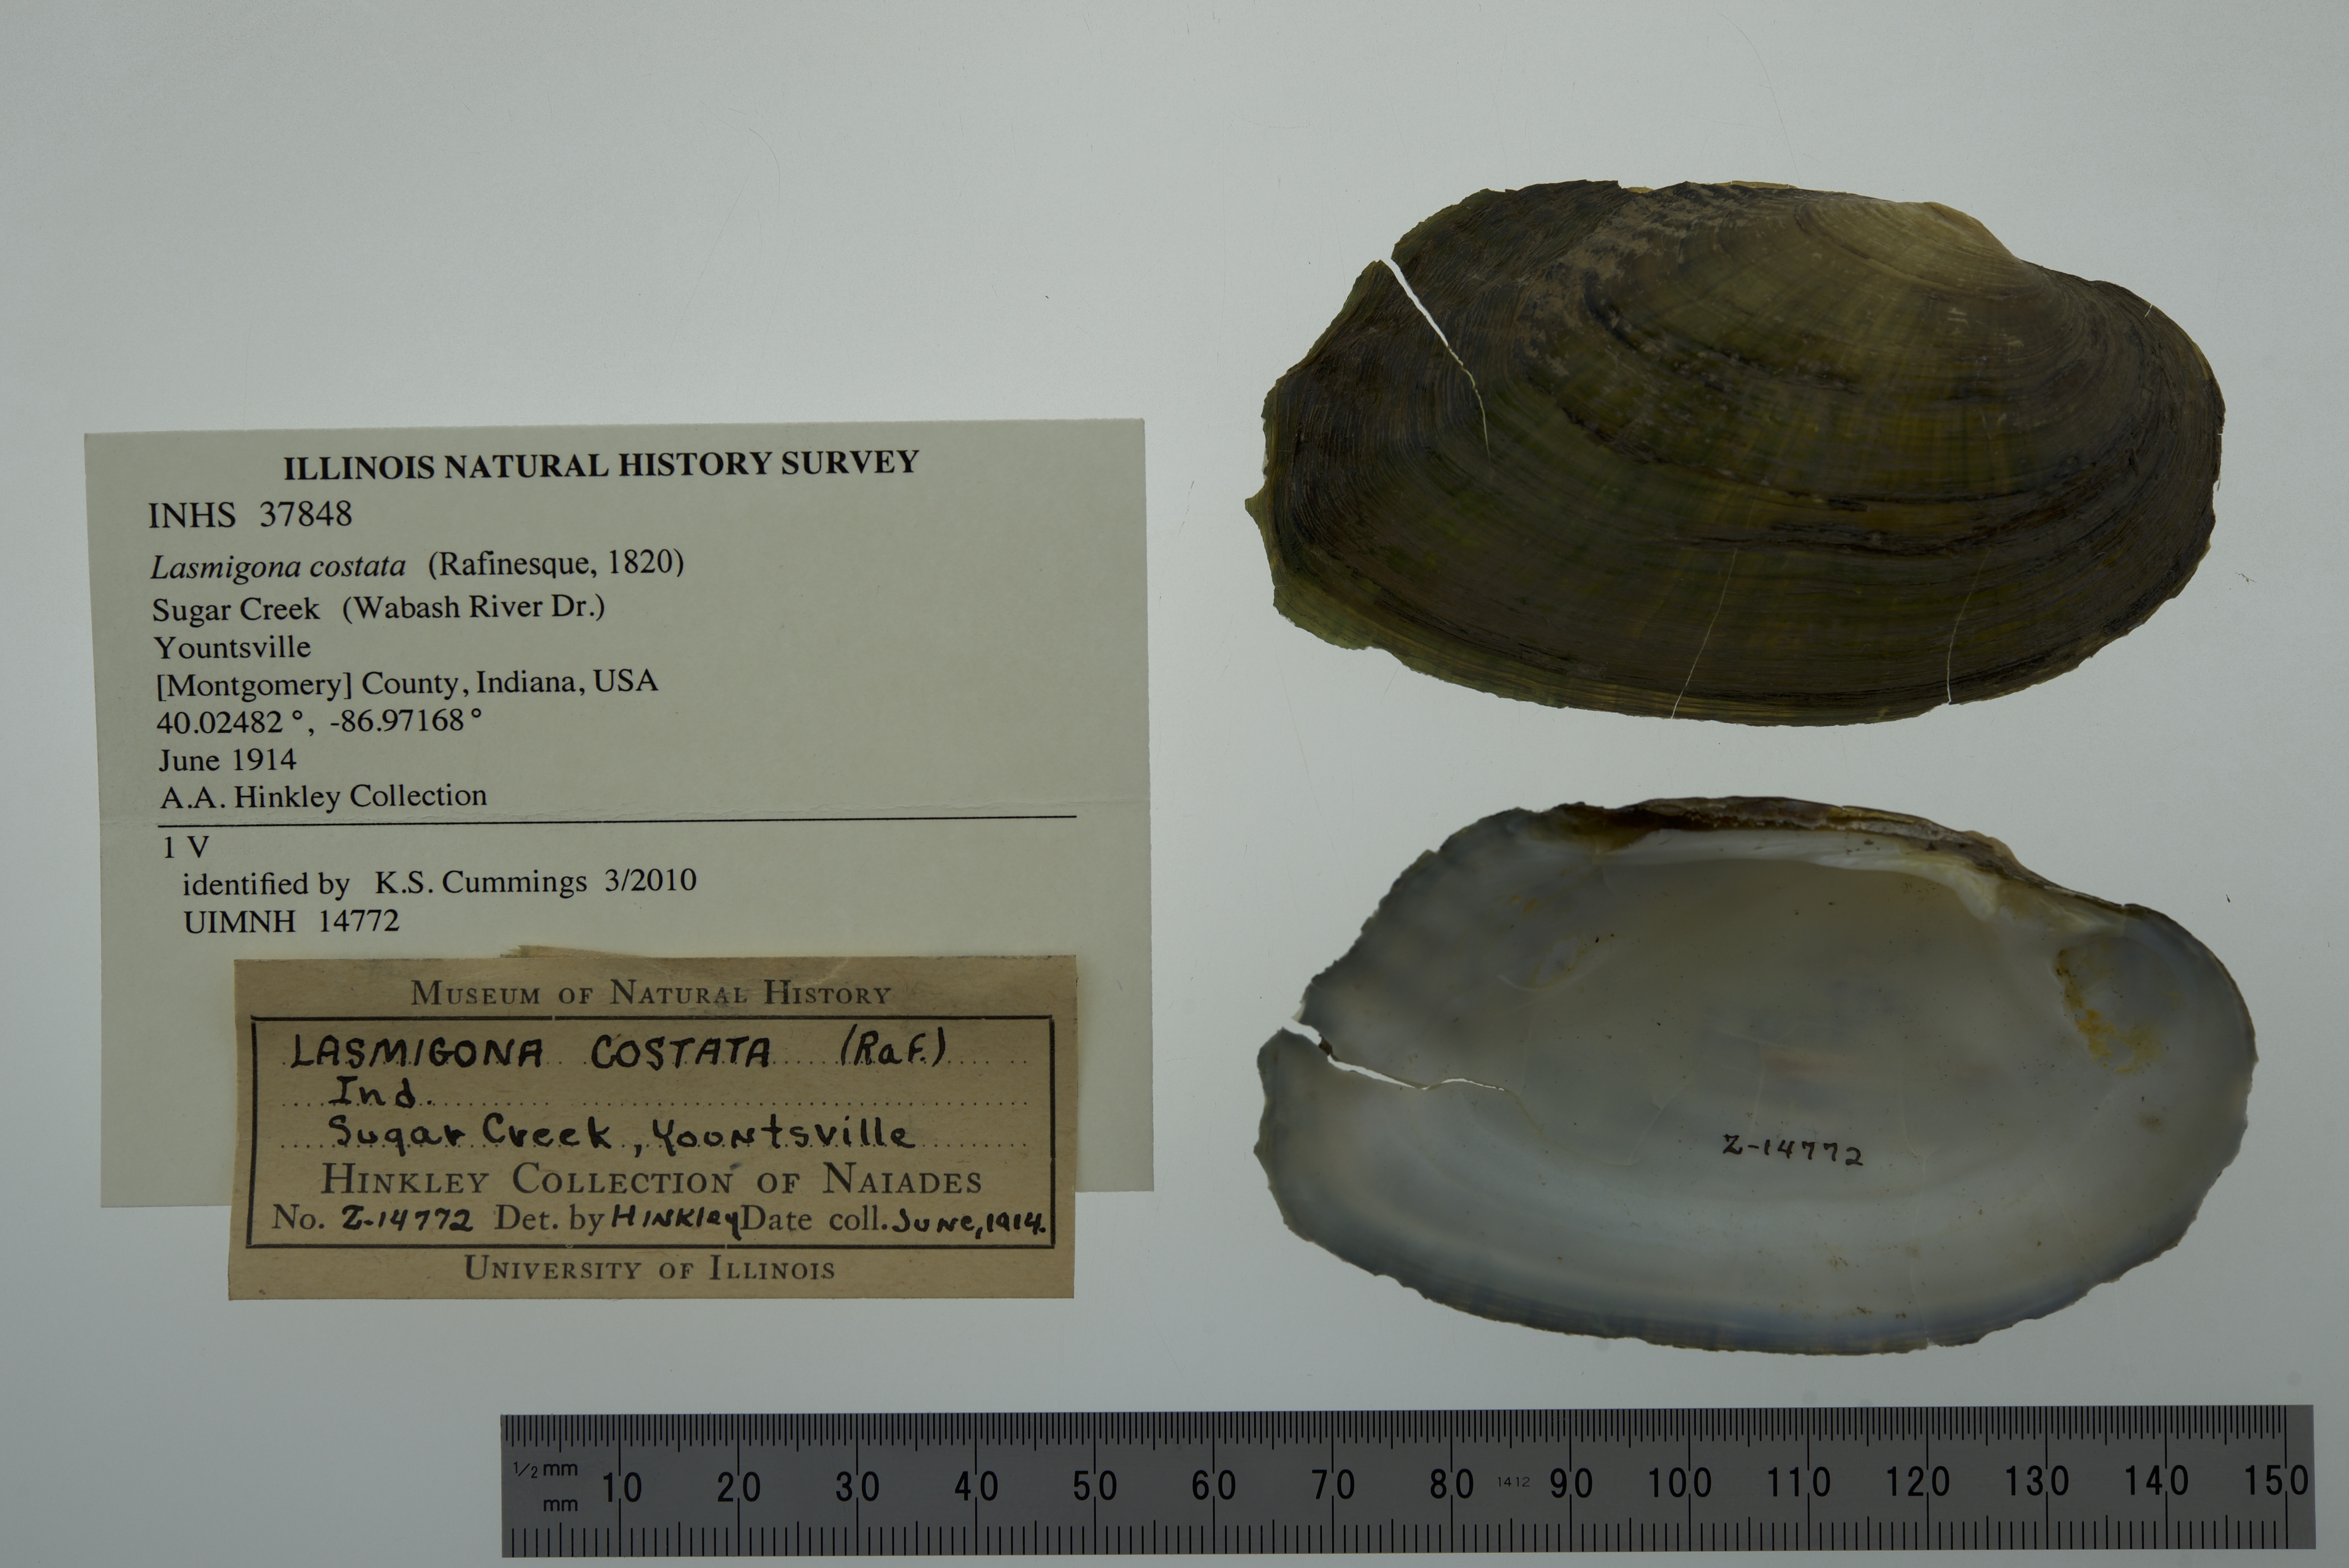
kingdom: Animalia
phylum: Mollusca
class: Bivalvia
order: Unionida
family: Unionidae
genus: Lasmigona
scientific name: Lasmigona costata
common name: Flutedshell
